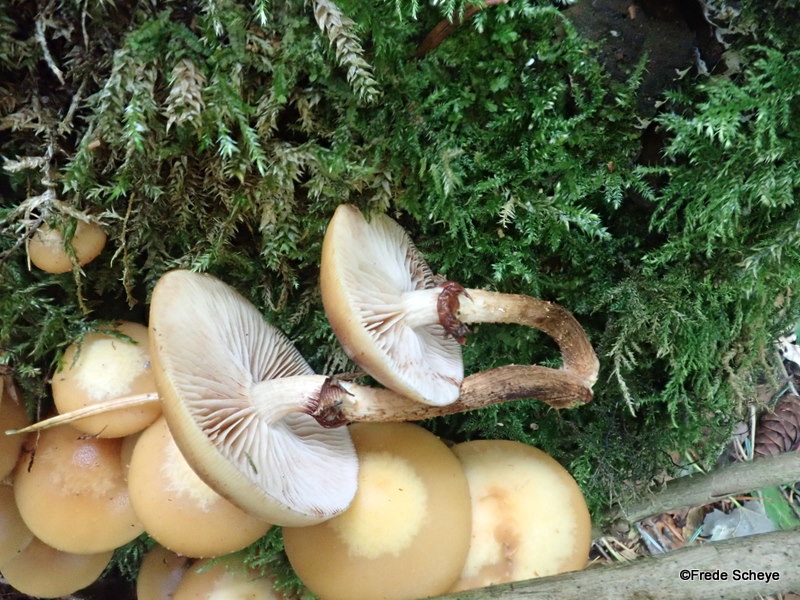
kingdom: Fungi
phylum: Basidiomycota
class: Agaricomycetes
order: Agaricales
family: Strophariaceae
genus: Kuehneromyces
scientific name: Kuehneromyces mutabilis
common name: foranderlig skælhat
